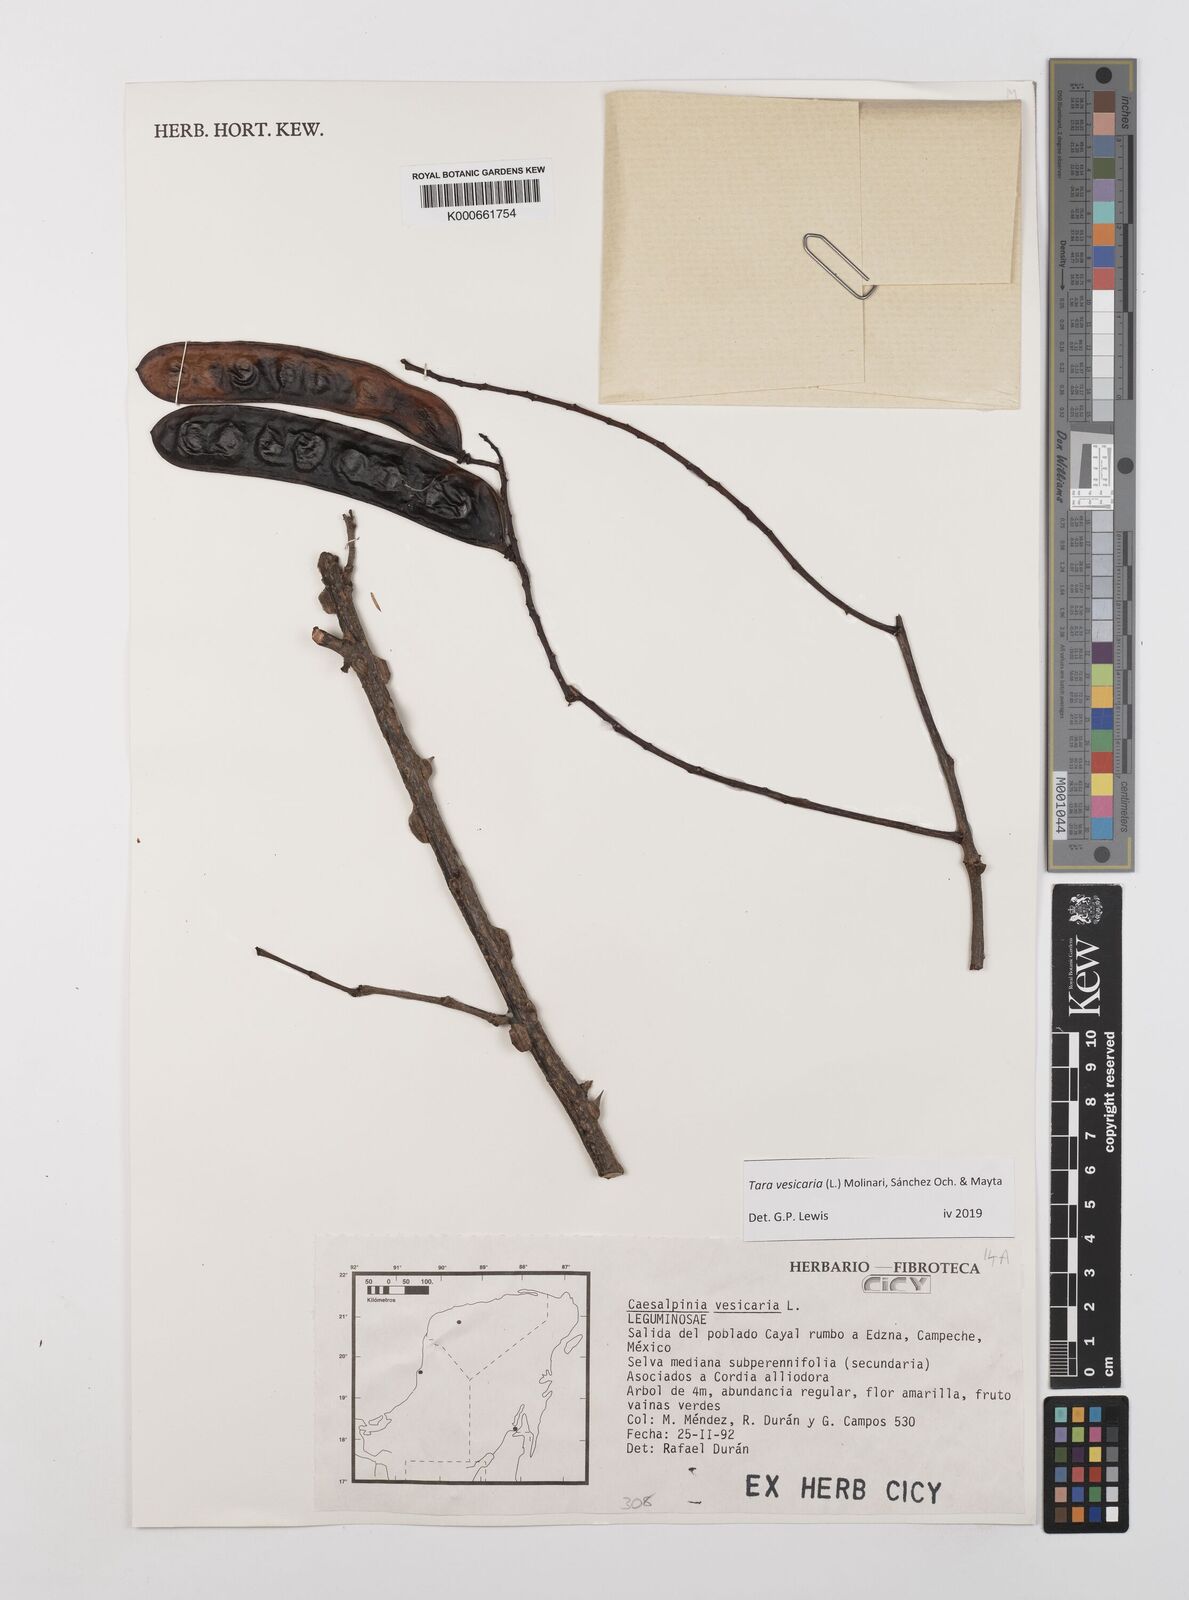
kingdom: Plantae
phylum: Tracheophyta
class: Magnoliopsida
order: Fabales
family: Fabaceae
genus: Tara
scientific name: Tara vesicaria
